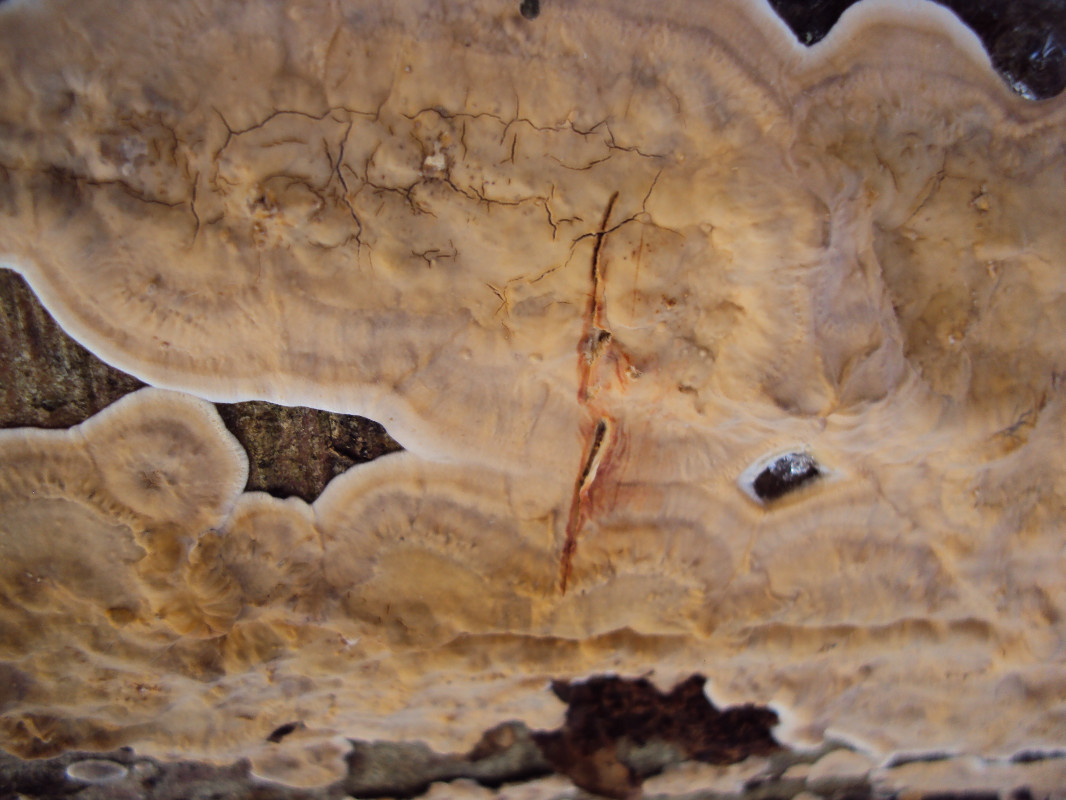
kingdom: Fungi
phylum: Basidiomycota
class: Agaricomycetes
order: Russulales
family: Stereaceae
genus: Stereum
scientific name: Stereum gausapatum
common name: tynd lædersvamp
